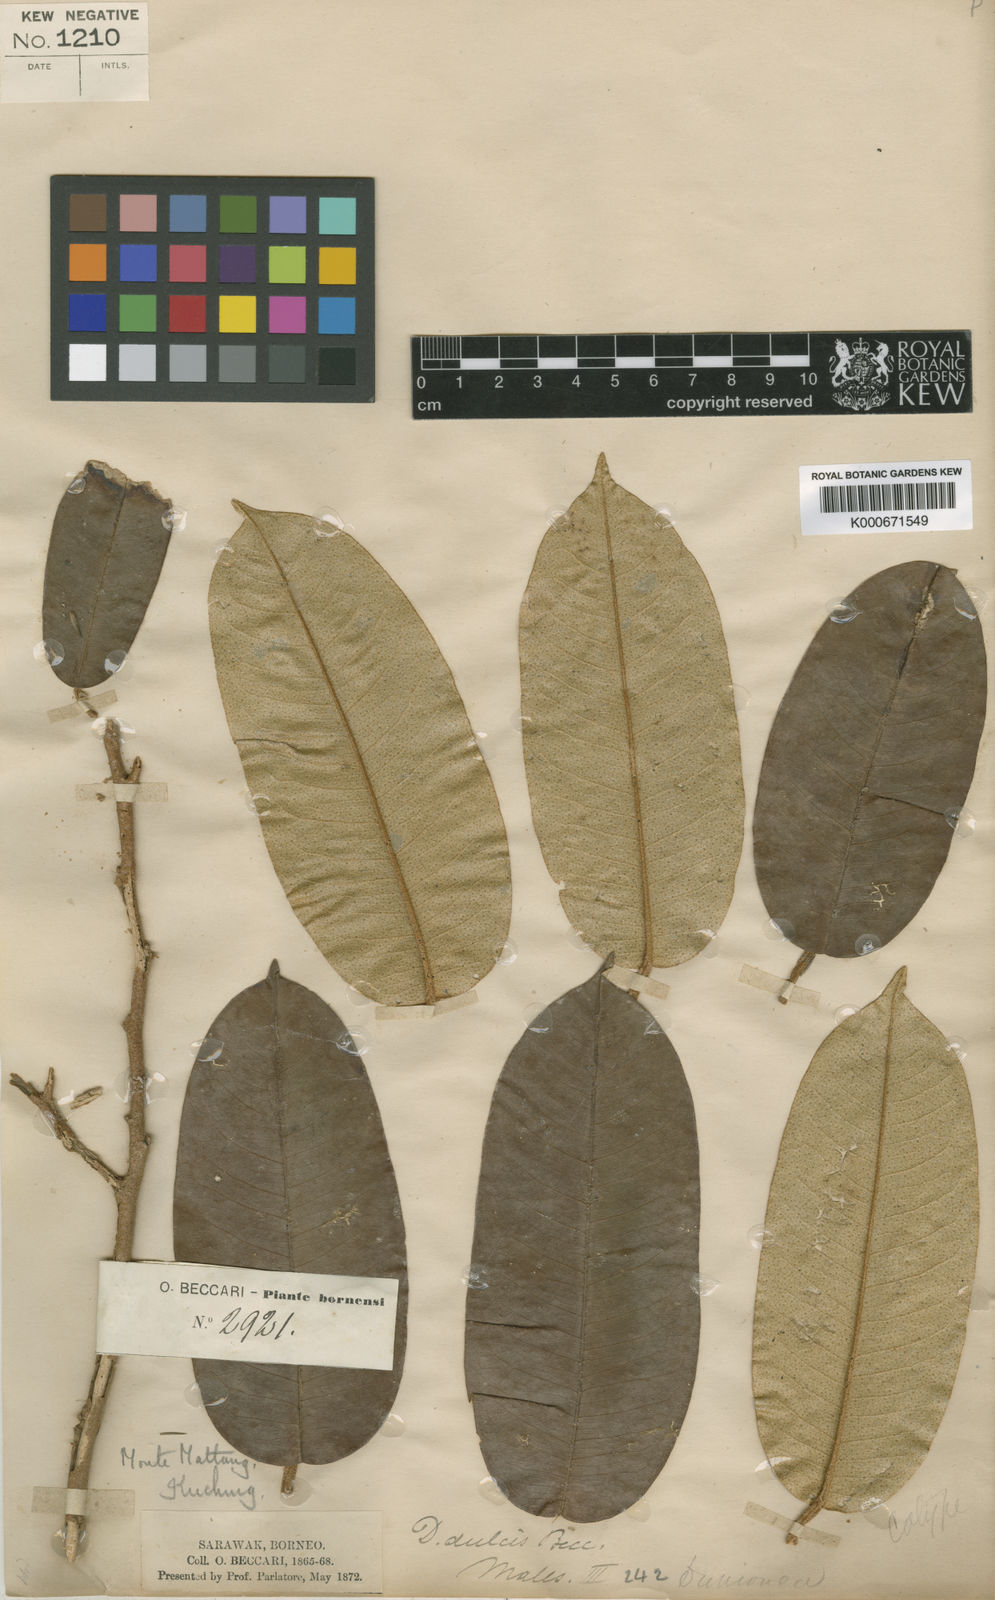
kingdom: Plantae
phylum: Tracheophyta
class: Magnoliopsida
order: Malvales
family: Malvaceae
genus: Durio
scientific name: Durio dulcis
